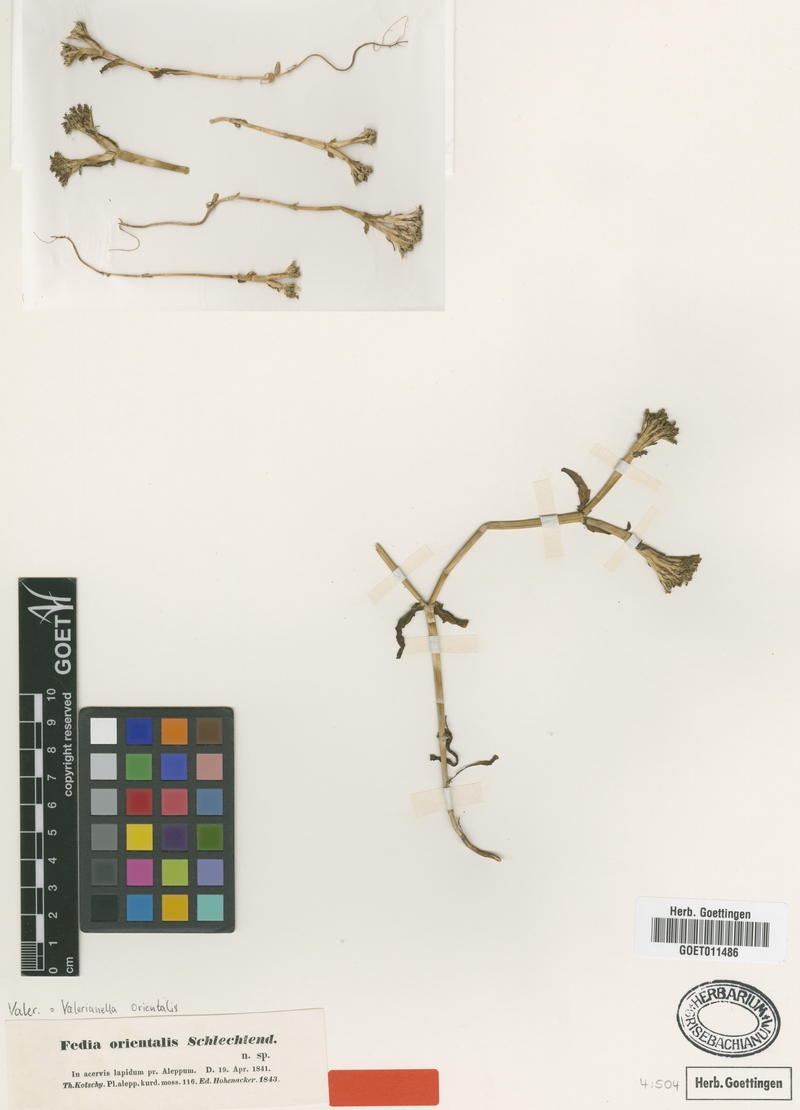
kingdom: Plantae
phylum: Tracheophyta
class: Magnoliopsida
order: Dipsacales
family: Caprifoliaceae
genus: Valerianella
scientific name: Valerianella orientalis
